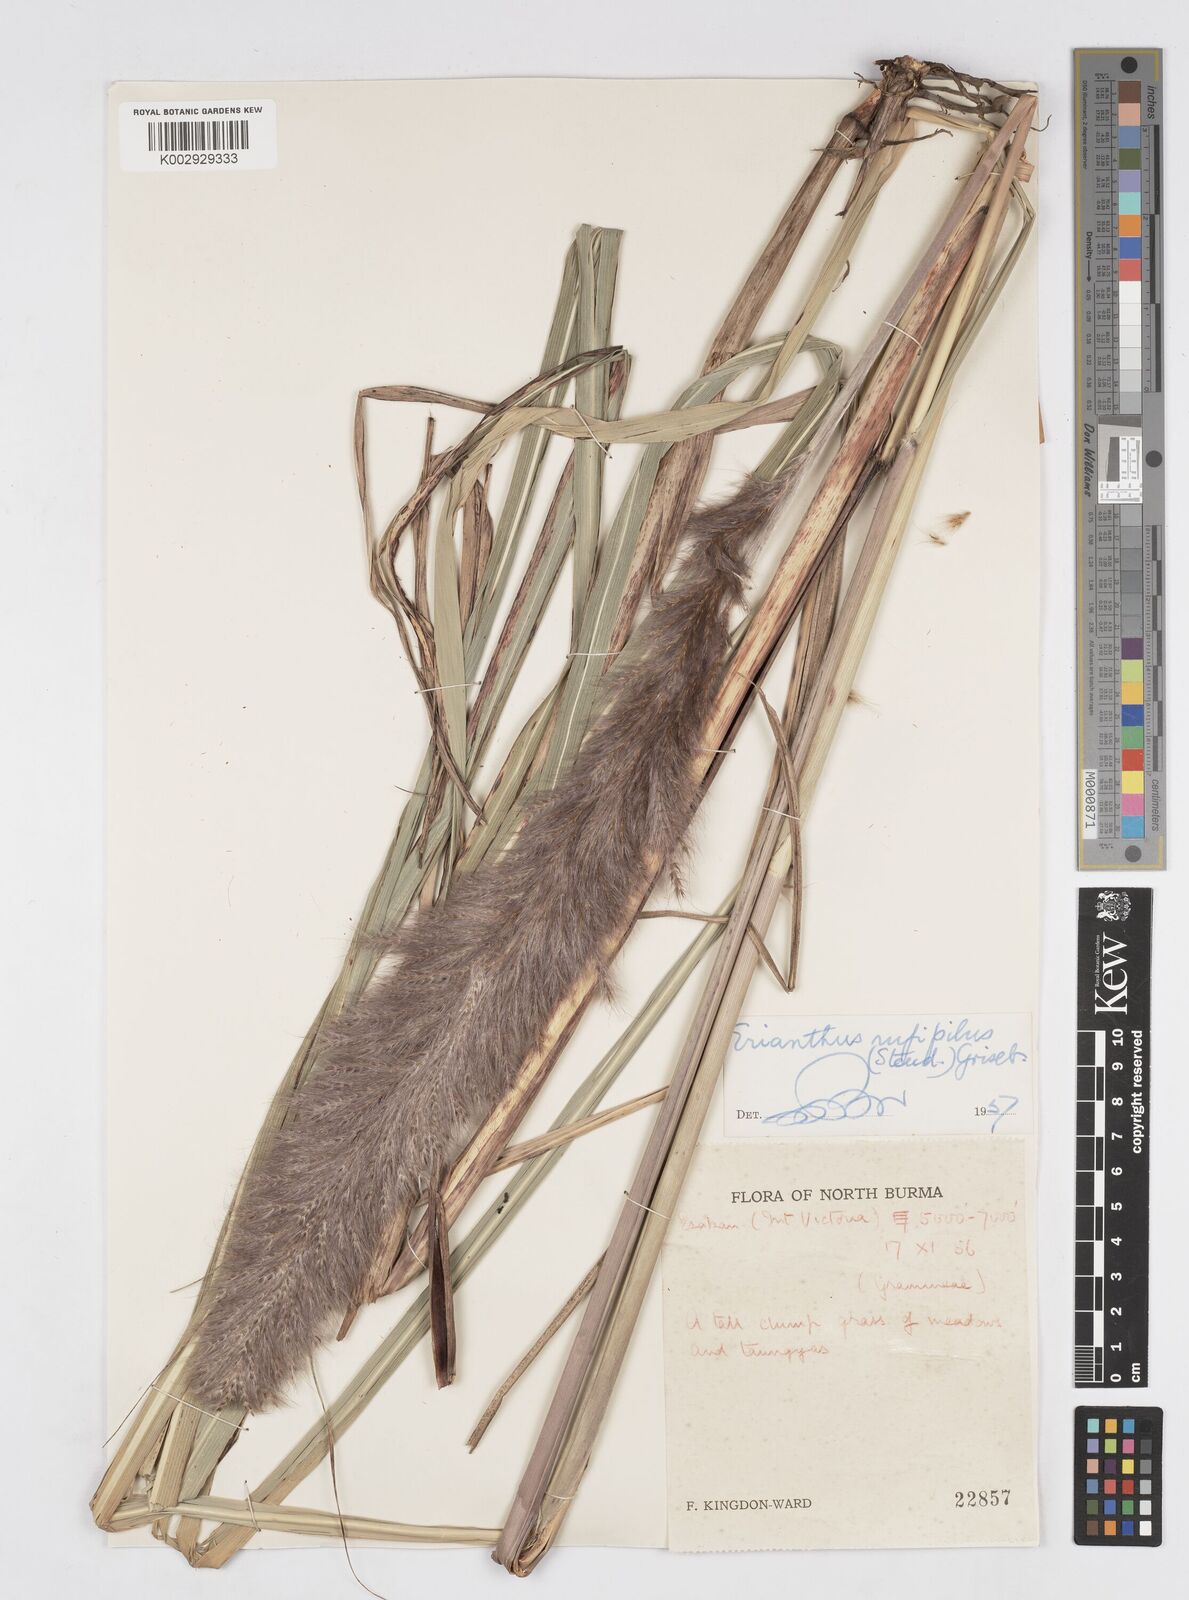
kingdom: Plantae
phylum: Tracheophyta
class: Liliopsida
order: Poales
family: Poaceae
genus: Tripidium
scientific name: Tripidium rufipilum
